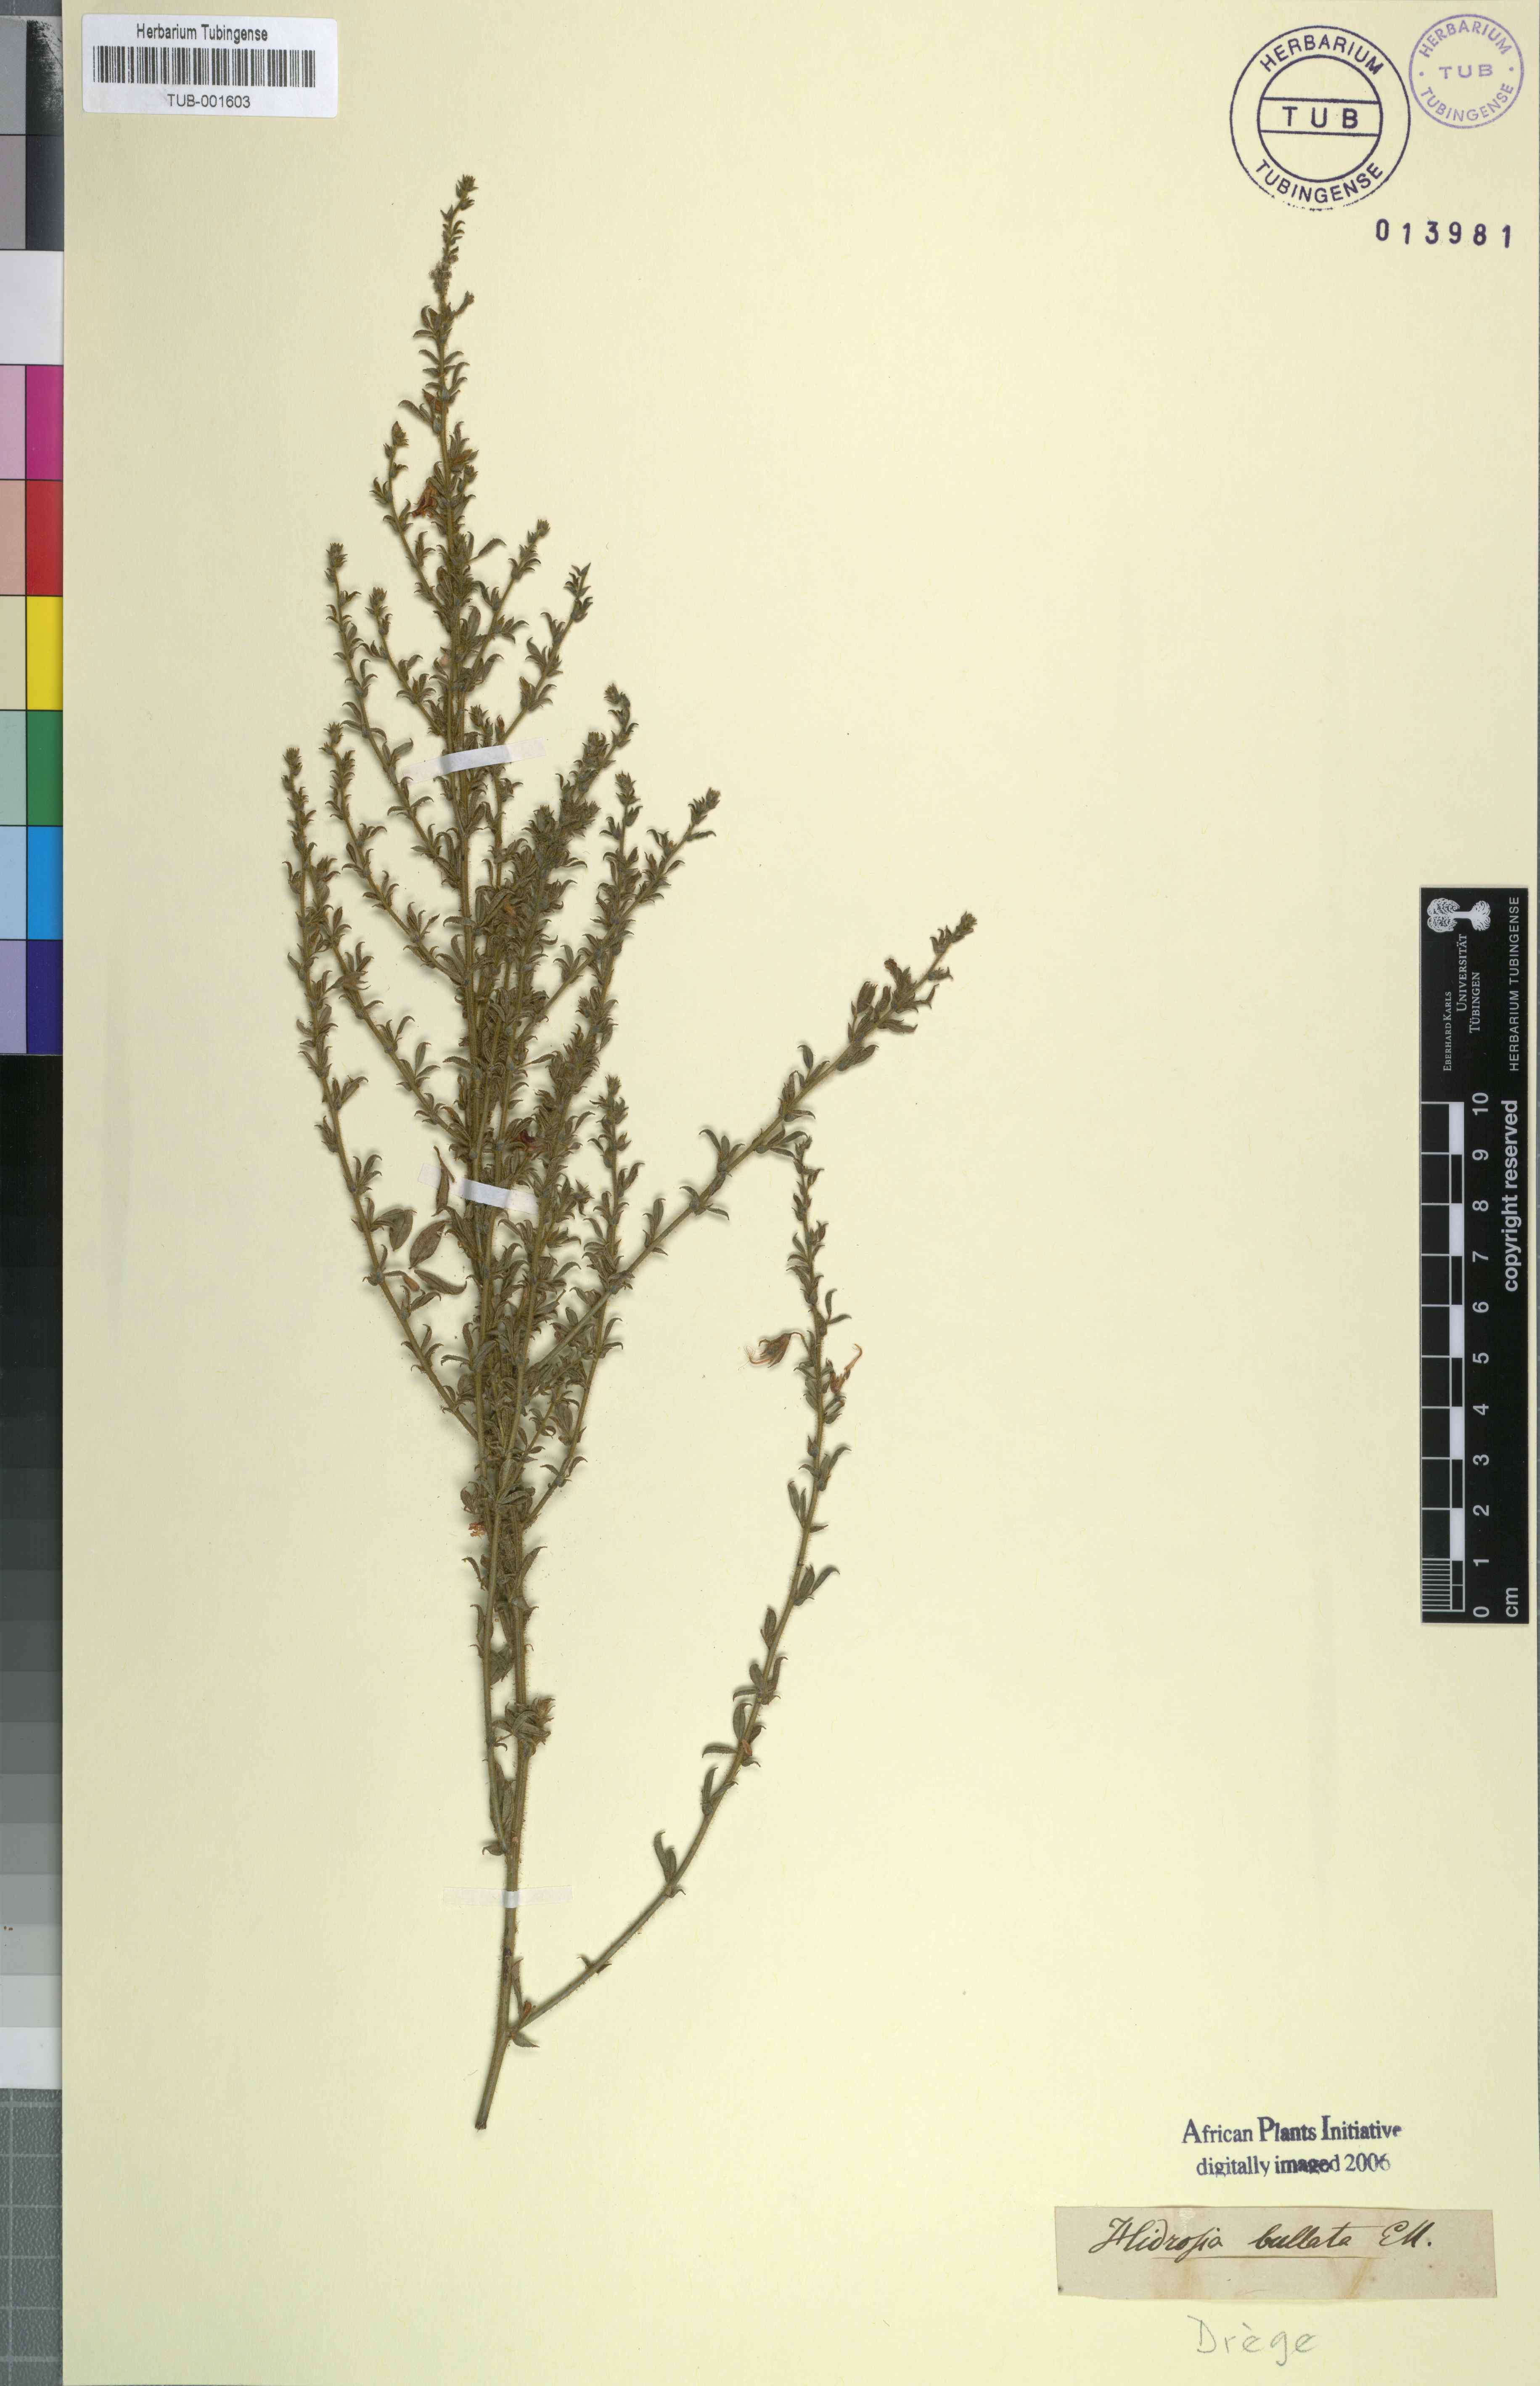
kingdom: Plantae
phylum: Tracheophyta
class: Magnoliopsida
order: Fabales
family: Fabaceae
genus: Rhynchosia
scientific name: Rhynchosia bullata
